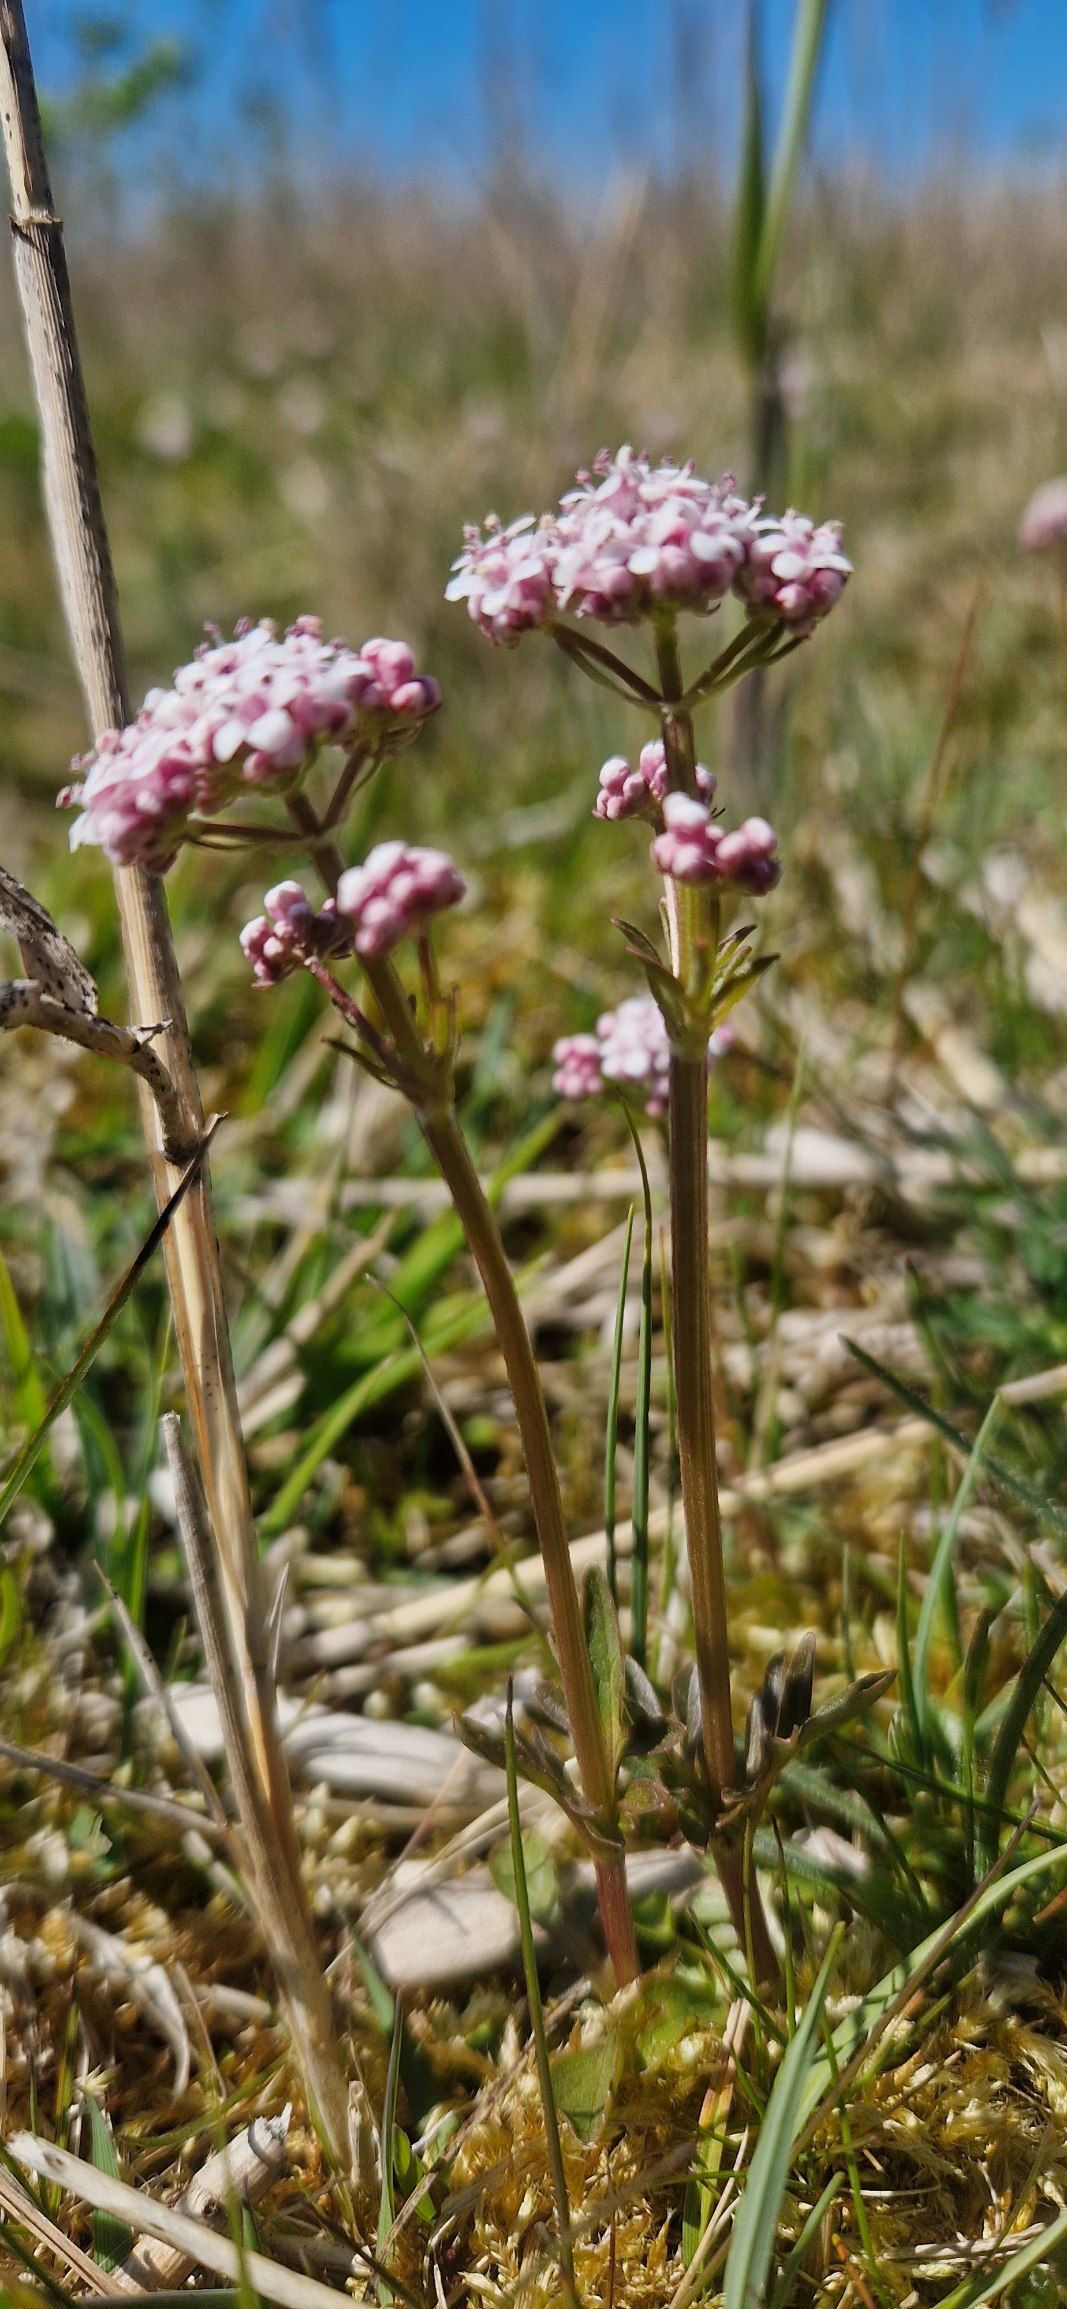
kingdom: Plantae
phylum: Tracheophyta
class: Magnoliopsida
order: Dipsacales
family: Caprifoliaceae
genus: Valeriana
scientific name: Valeriana dioica
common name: Tvebo baldrian
